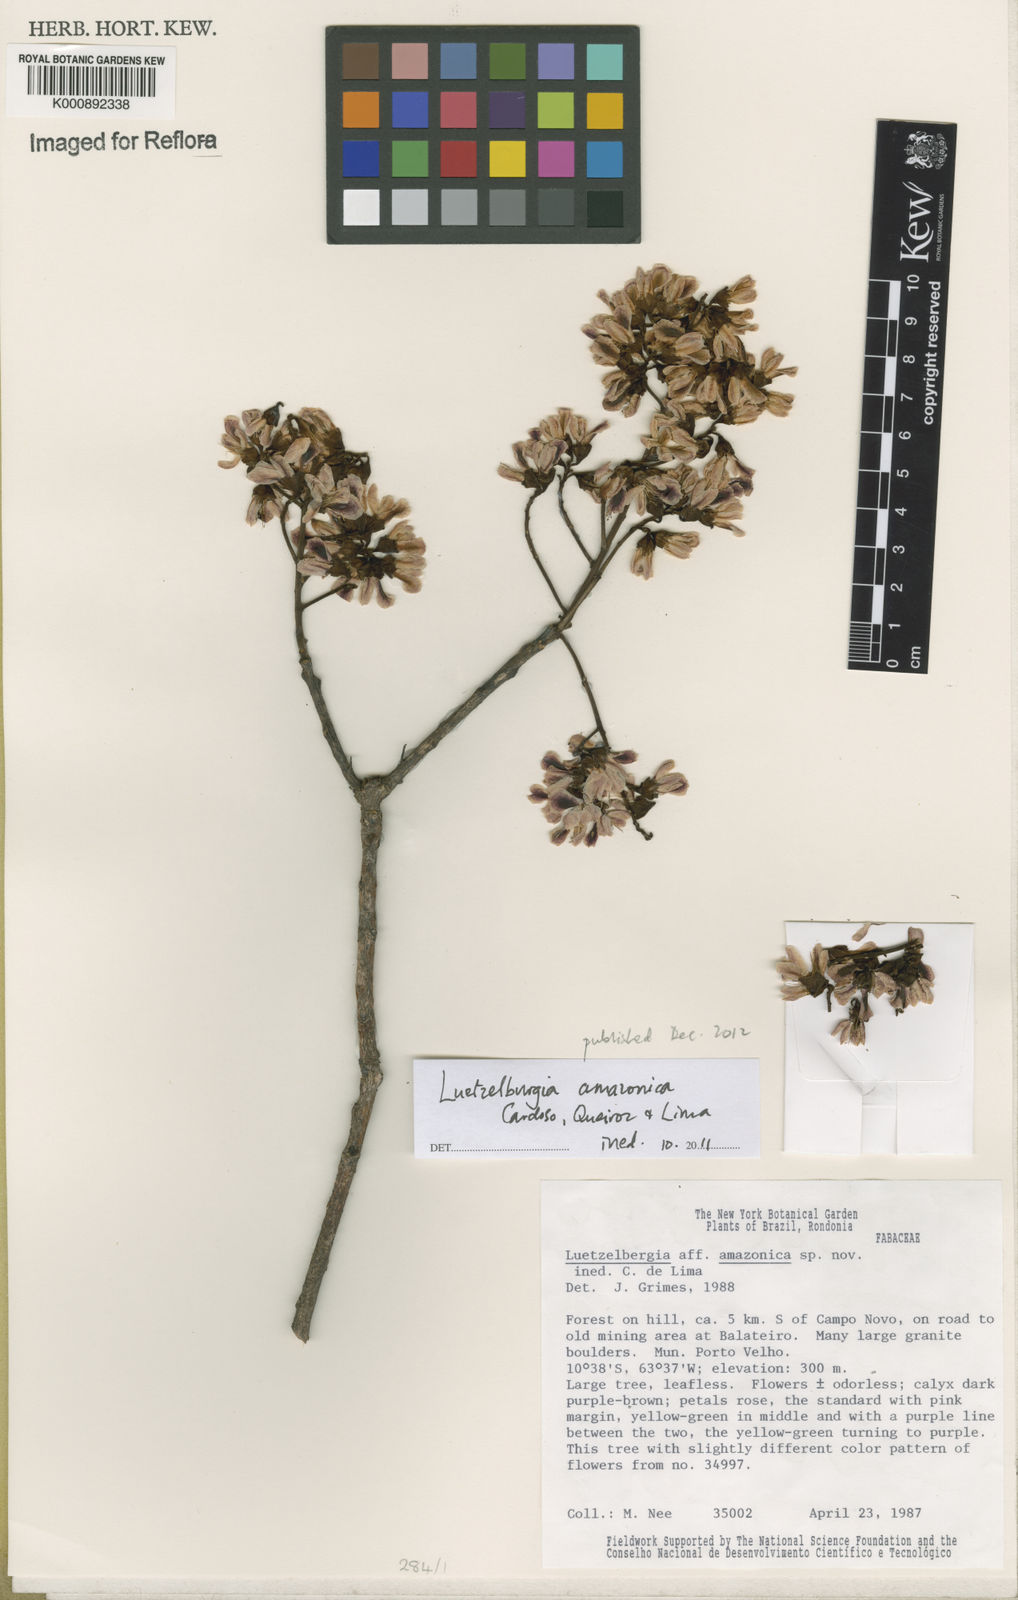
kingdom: Plantae
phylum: Tracheophyta
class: Magnoliopsida
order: Fabales
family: Fabaceae
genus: Luetzelburgia
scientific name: Luetzelburgia amazonica
